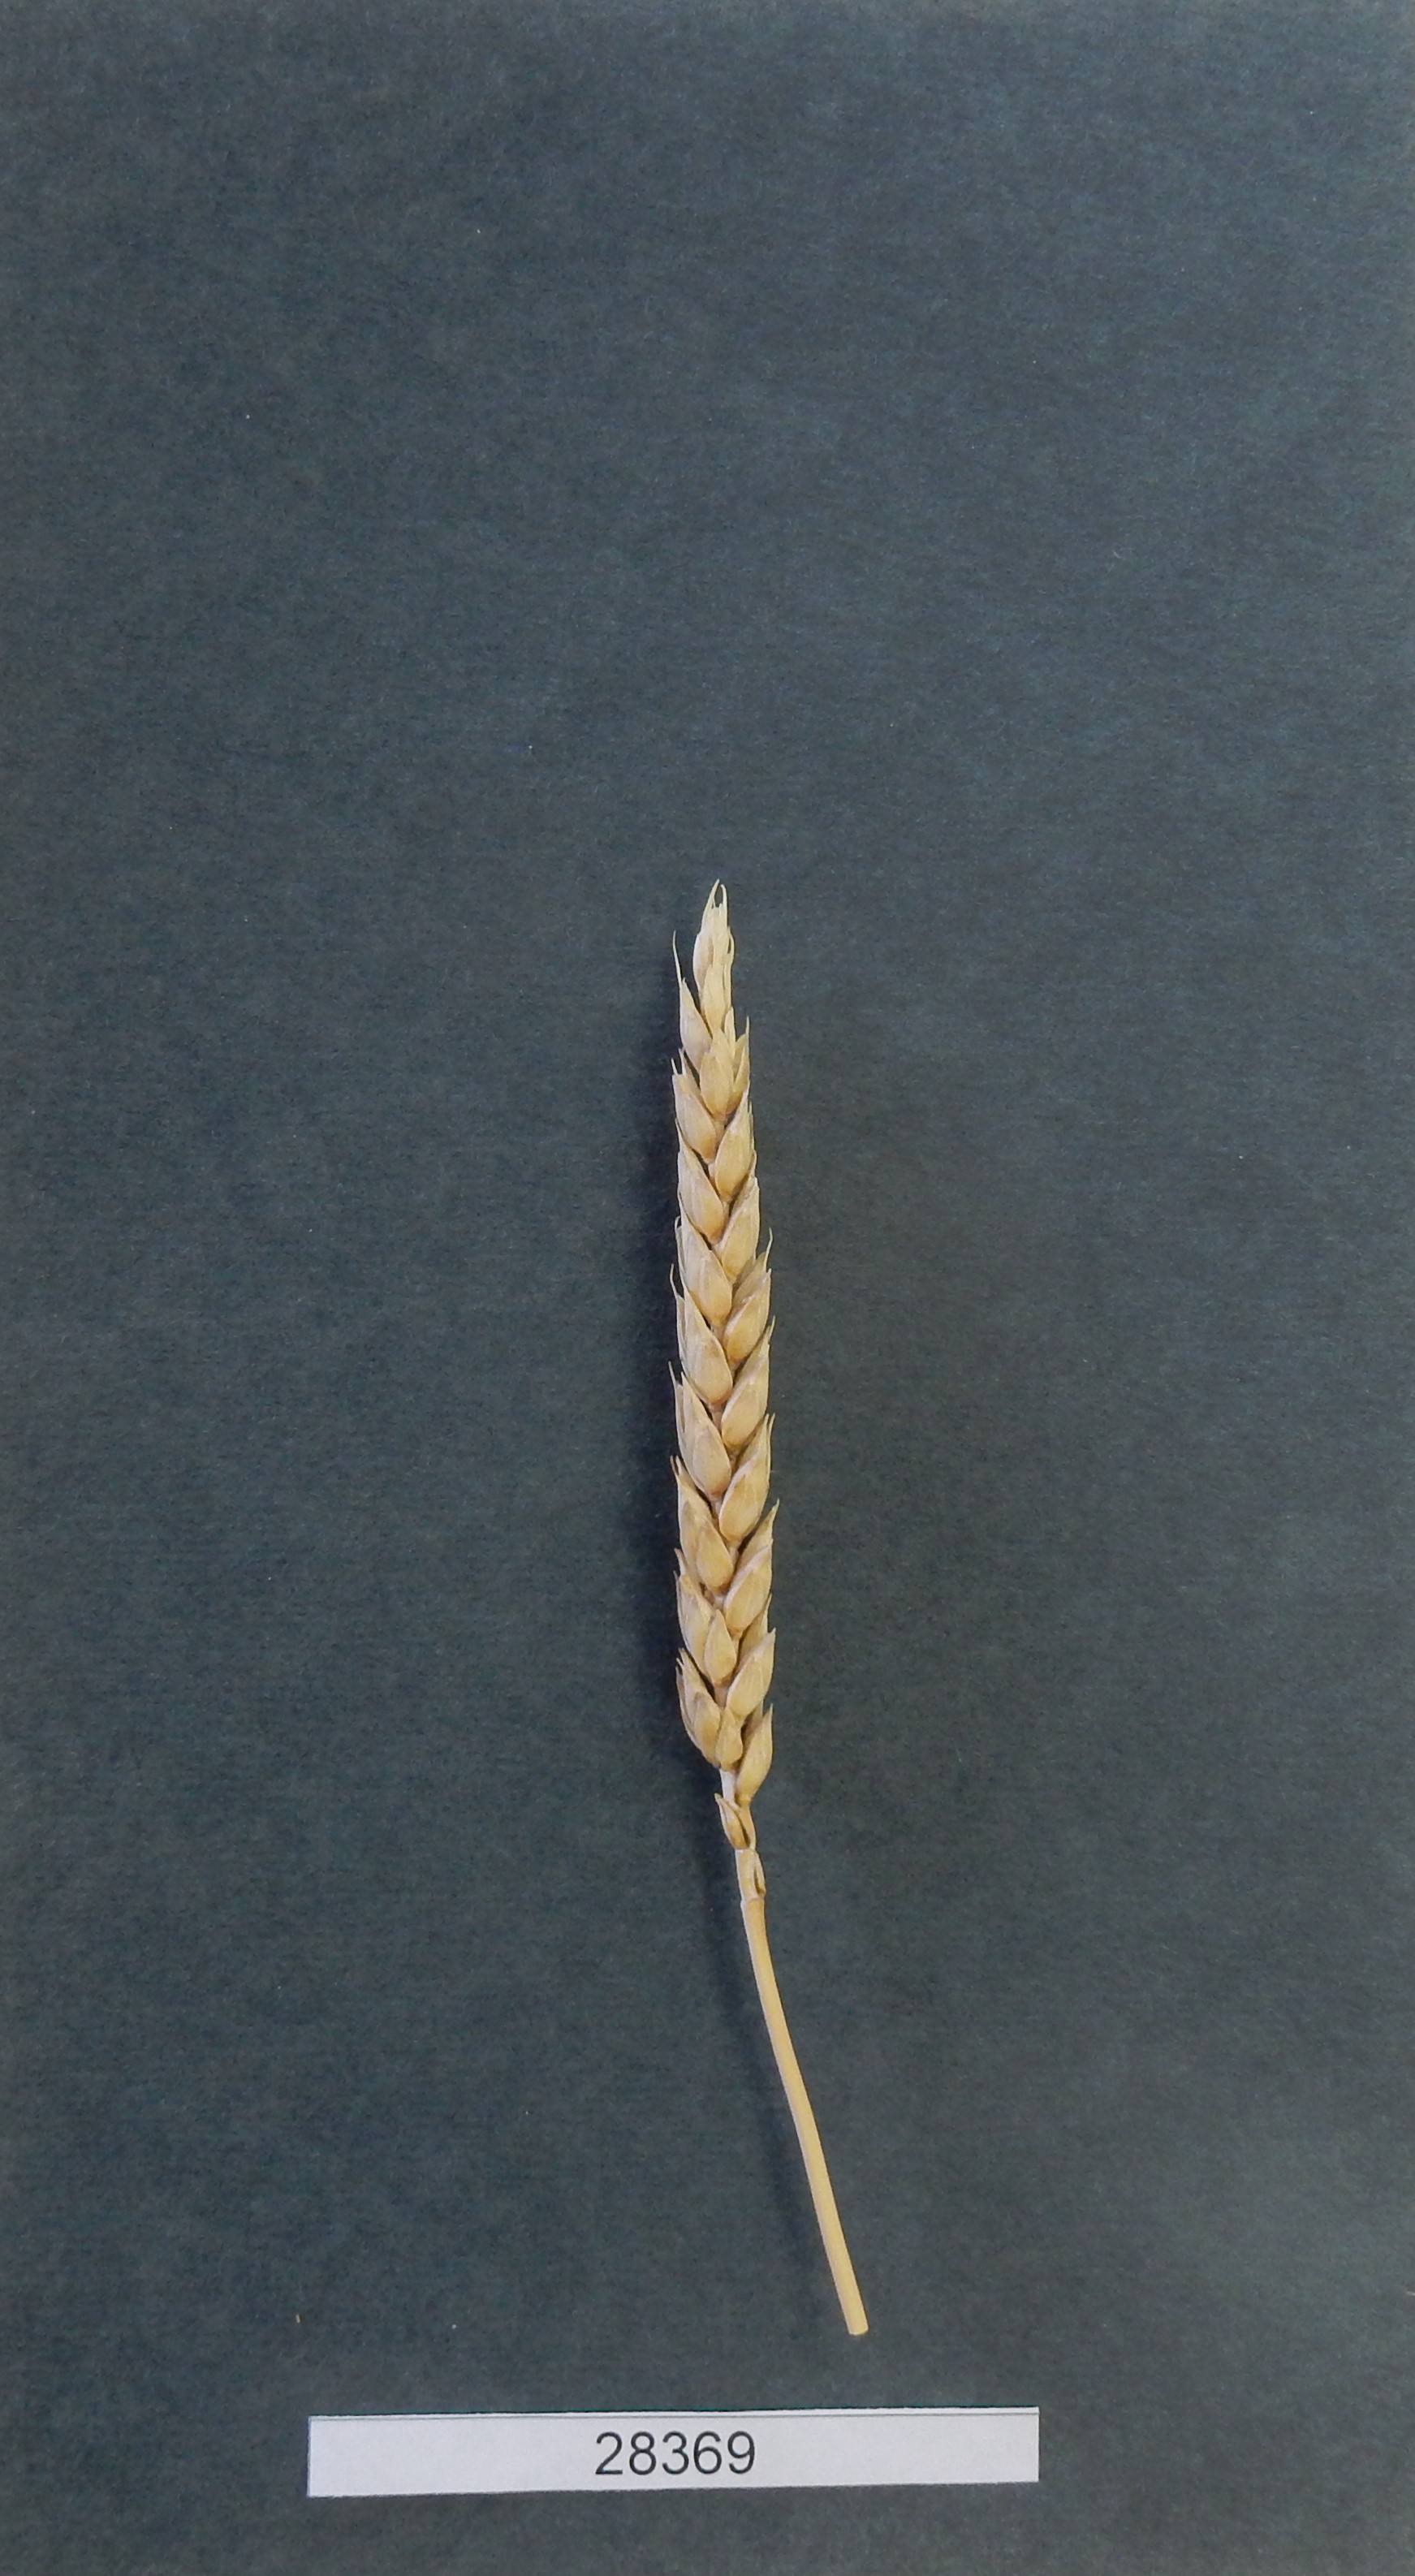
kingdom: Plantae
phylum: Tracheophyta
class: Liliopsida
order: Poales
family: Poaceae
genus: Triticum
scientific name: Triticum aestivum
